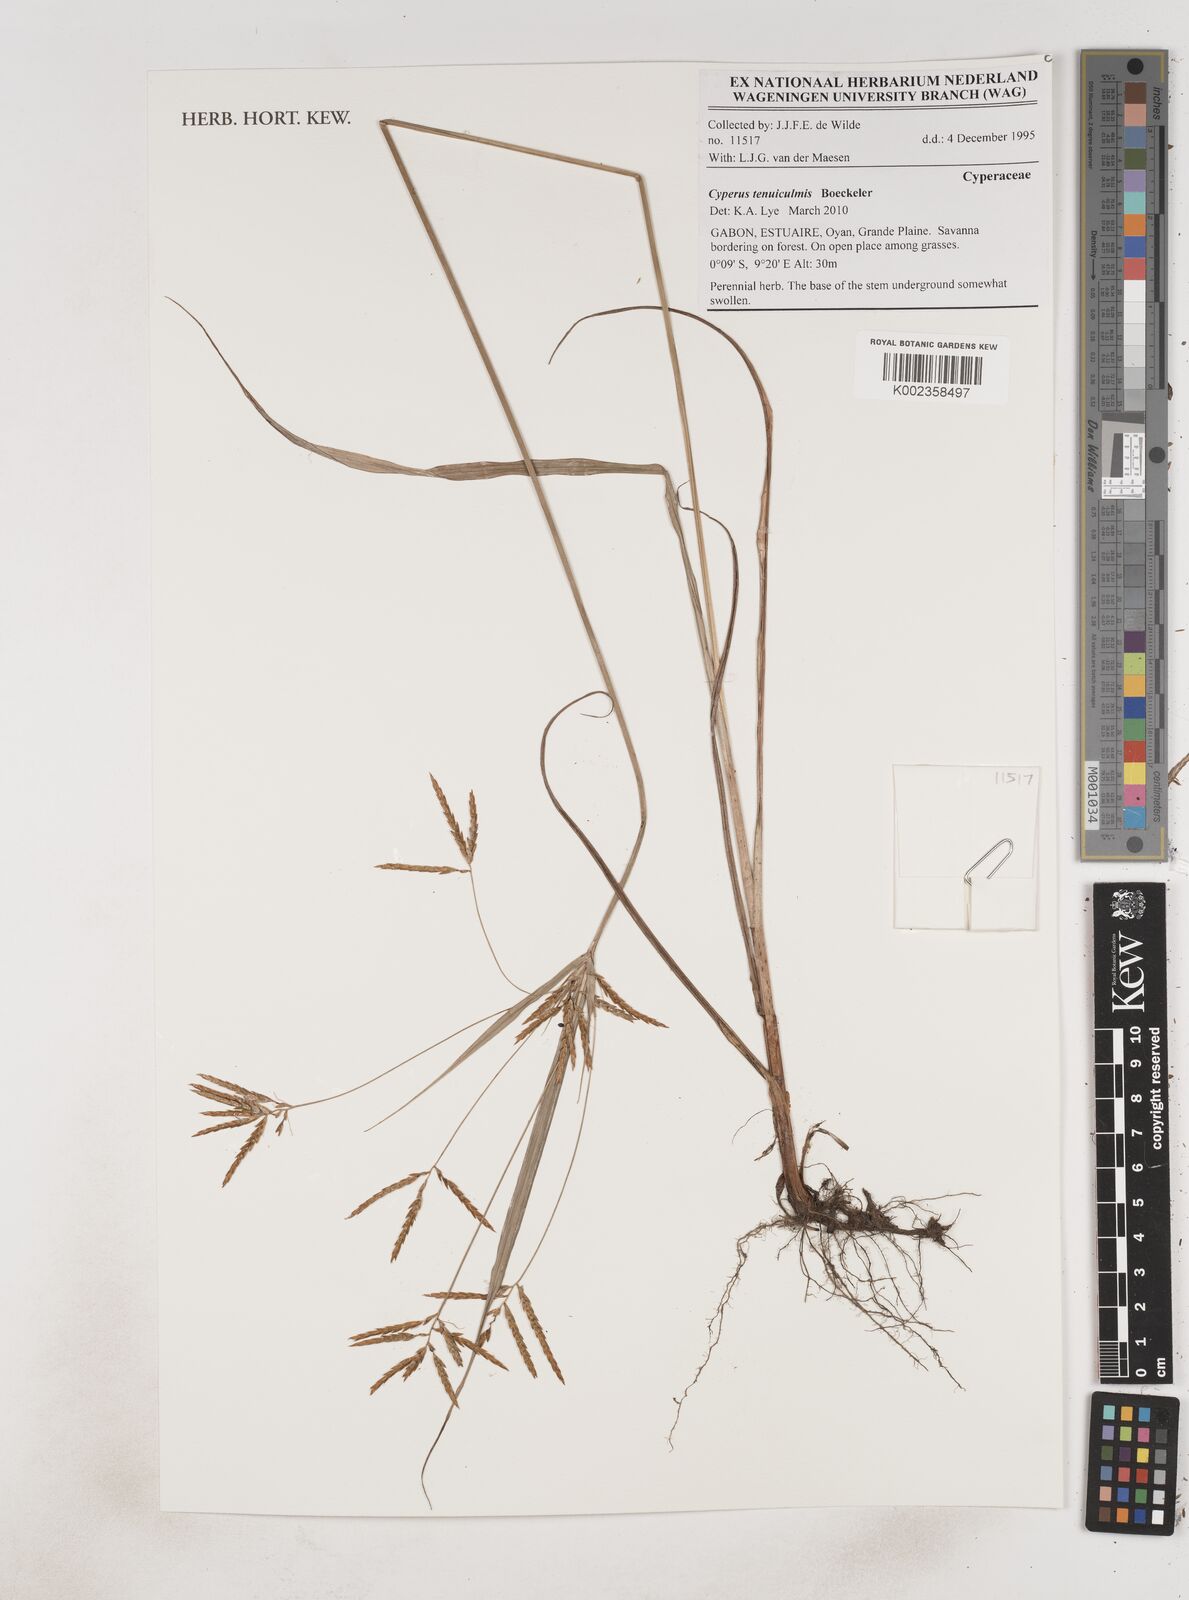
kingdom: Plantae
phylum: Tracheophyta
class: Liliopsida
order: Poales
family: Cyperaceae
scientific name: Cyperaceae
